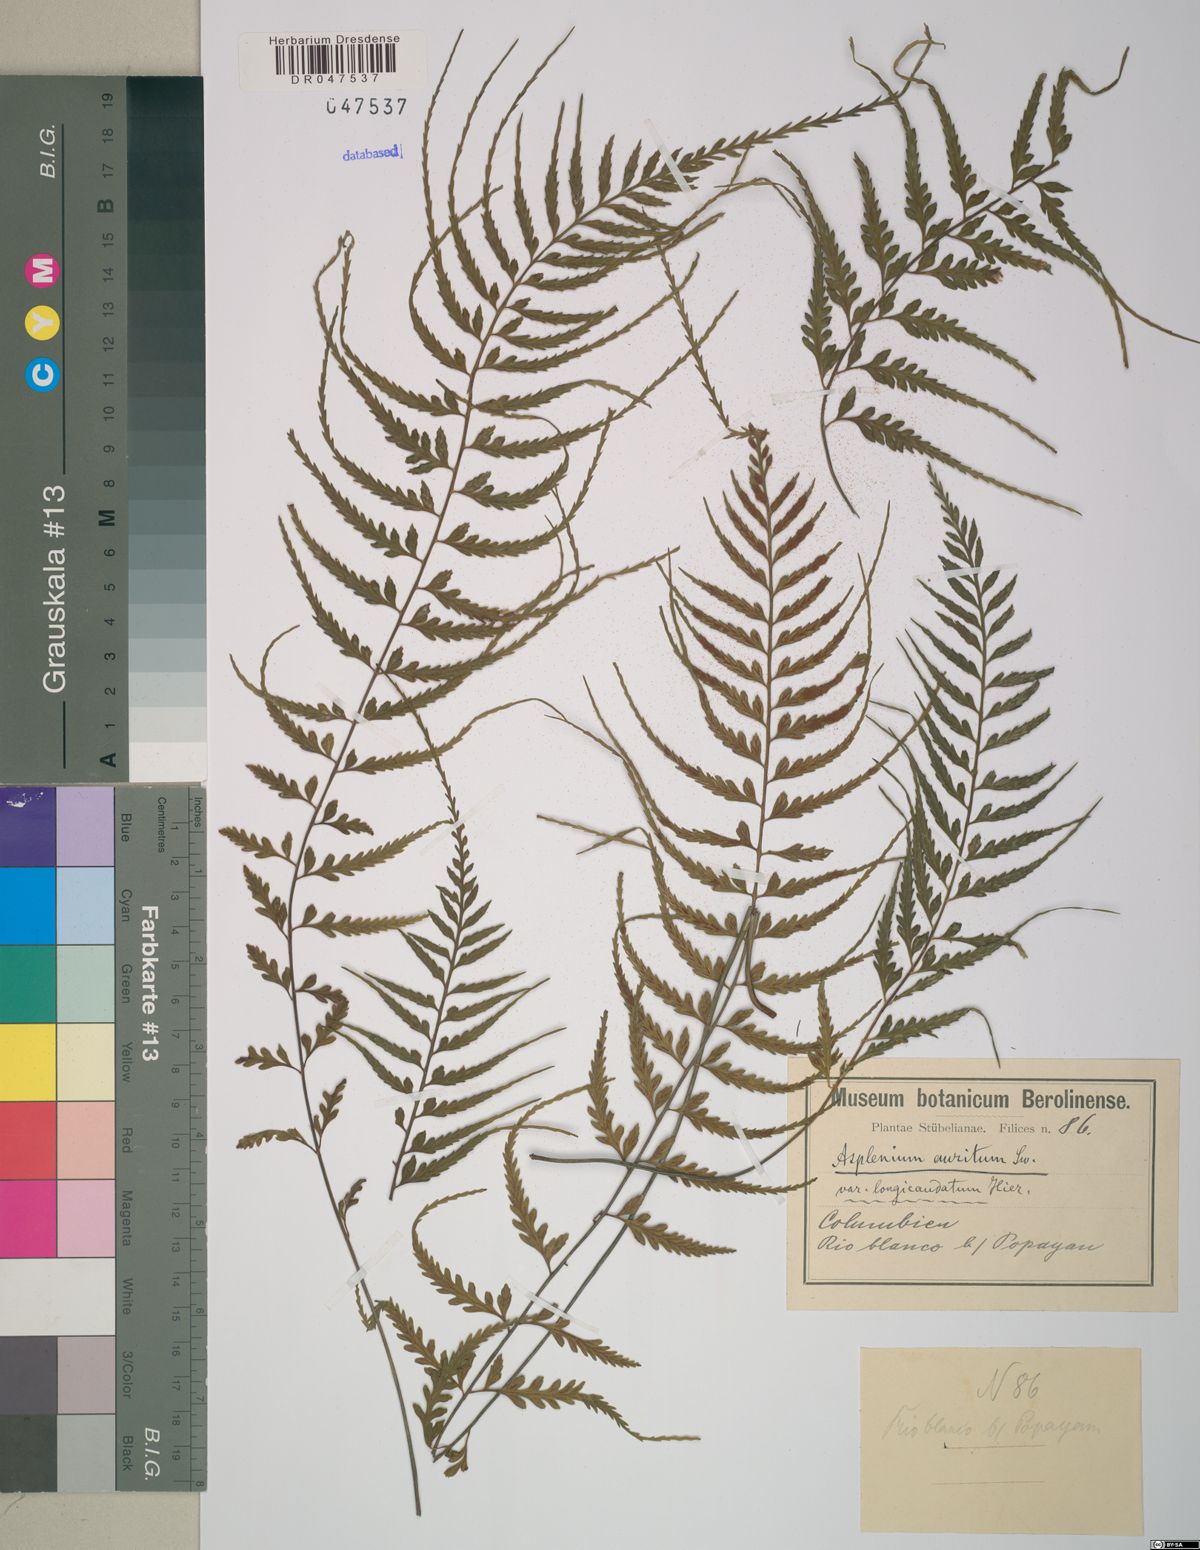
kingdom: Plantae
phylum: Tracheophyta
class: Polypodiopsida
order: Polypodiales
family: Aspleniaceae
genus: Asplenium
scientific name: Asplenium auritum
